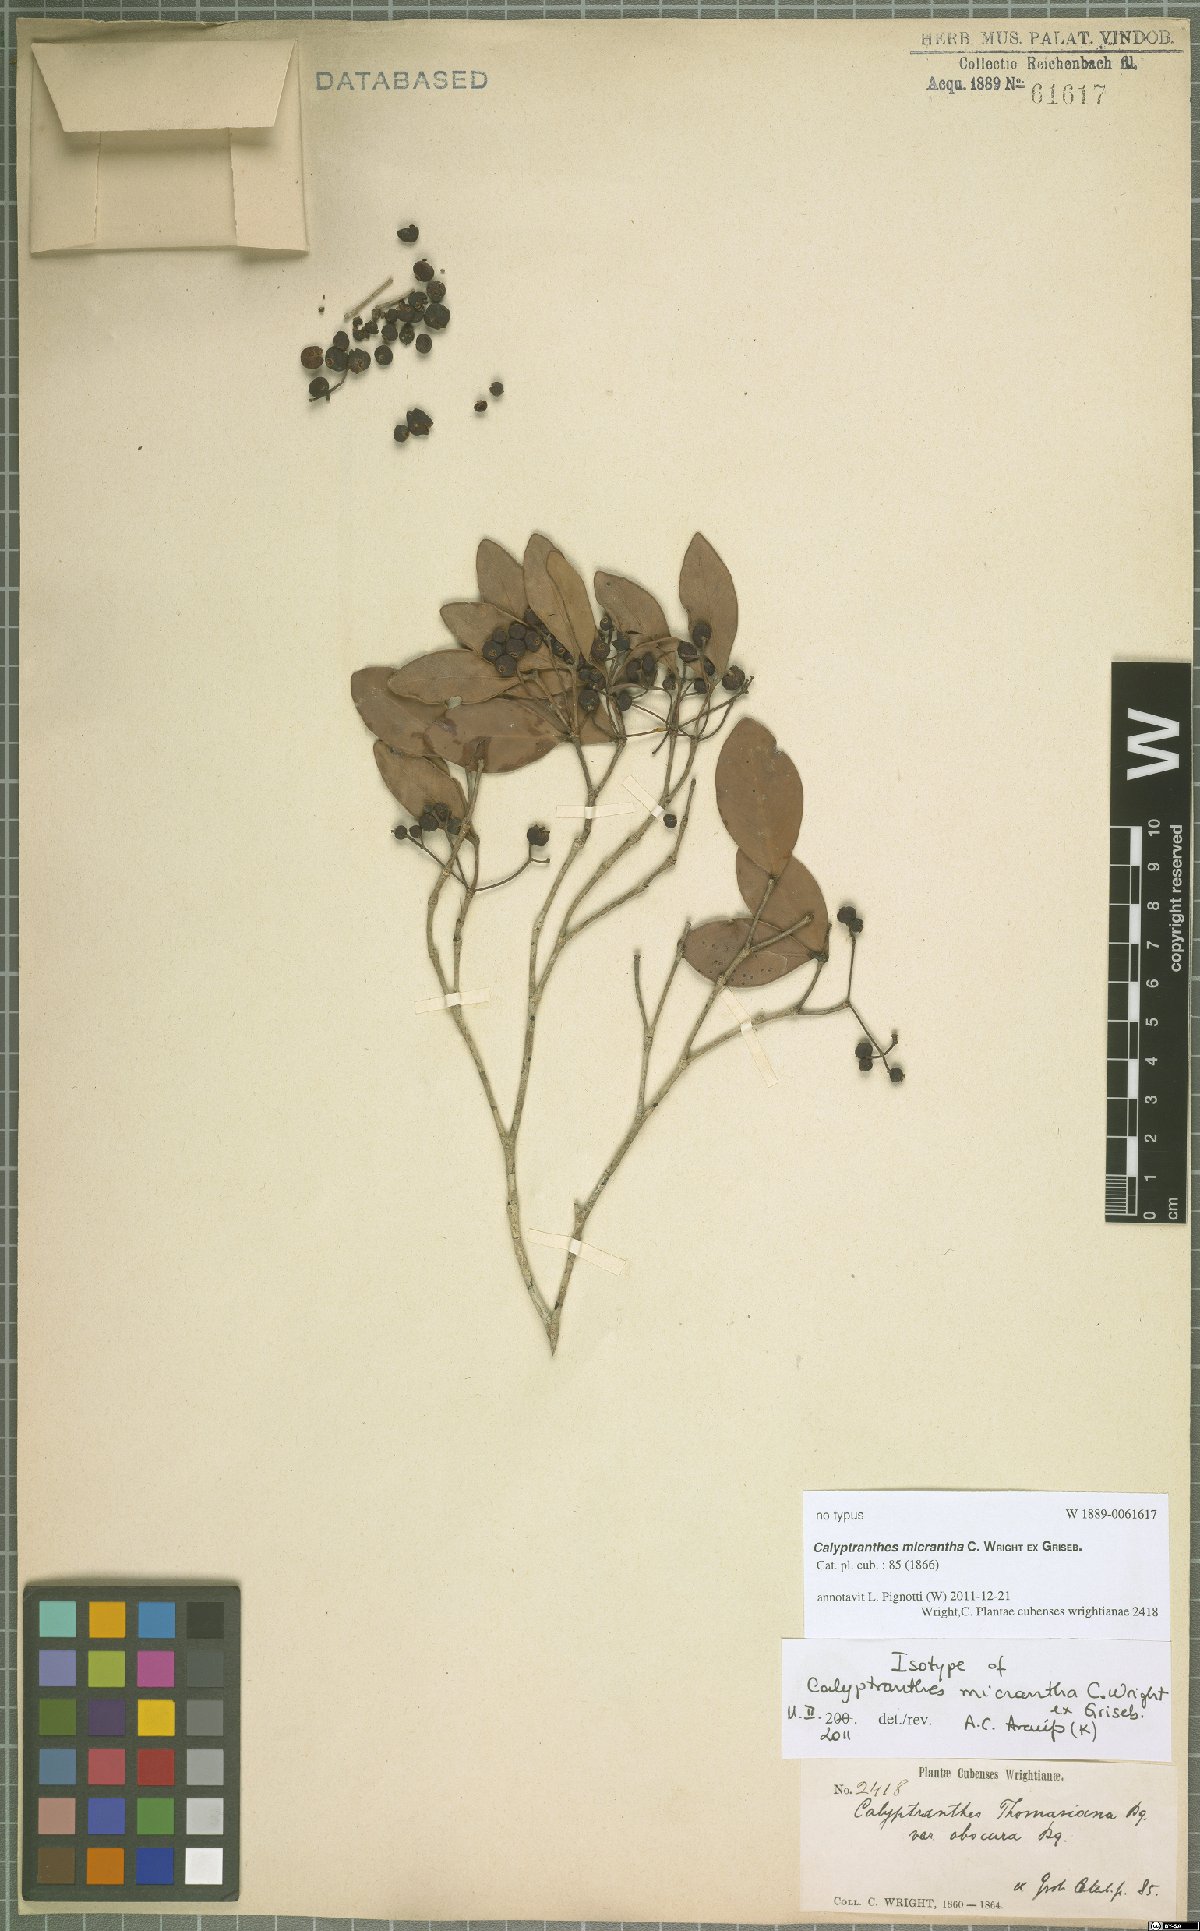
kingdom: Plantae
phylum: Tracheophyta
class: Magnoliopsida
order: Myrtales
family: Myrtaceae
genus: Myrcia
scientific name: Myrcia parviantha
